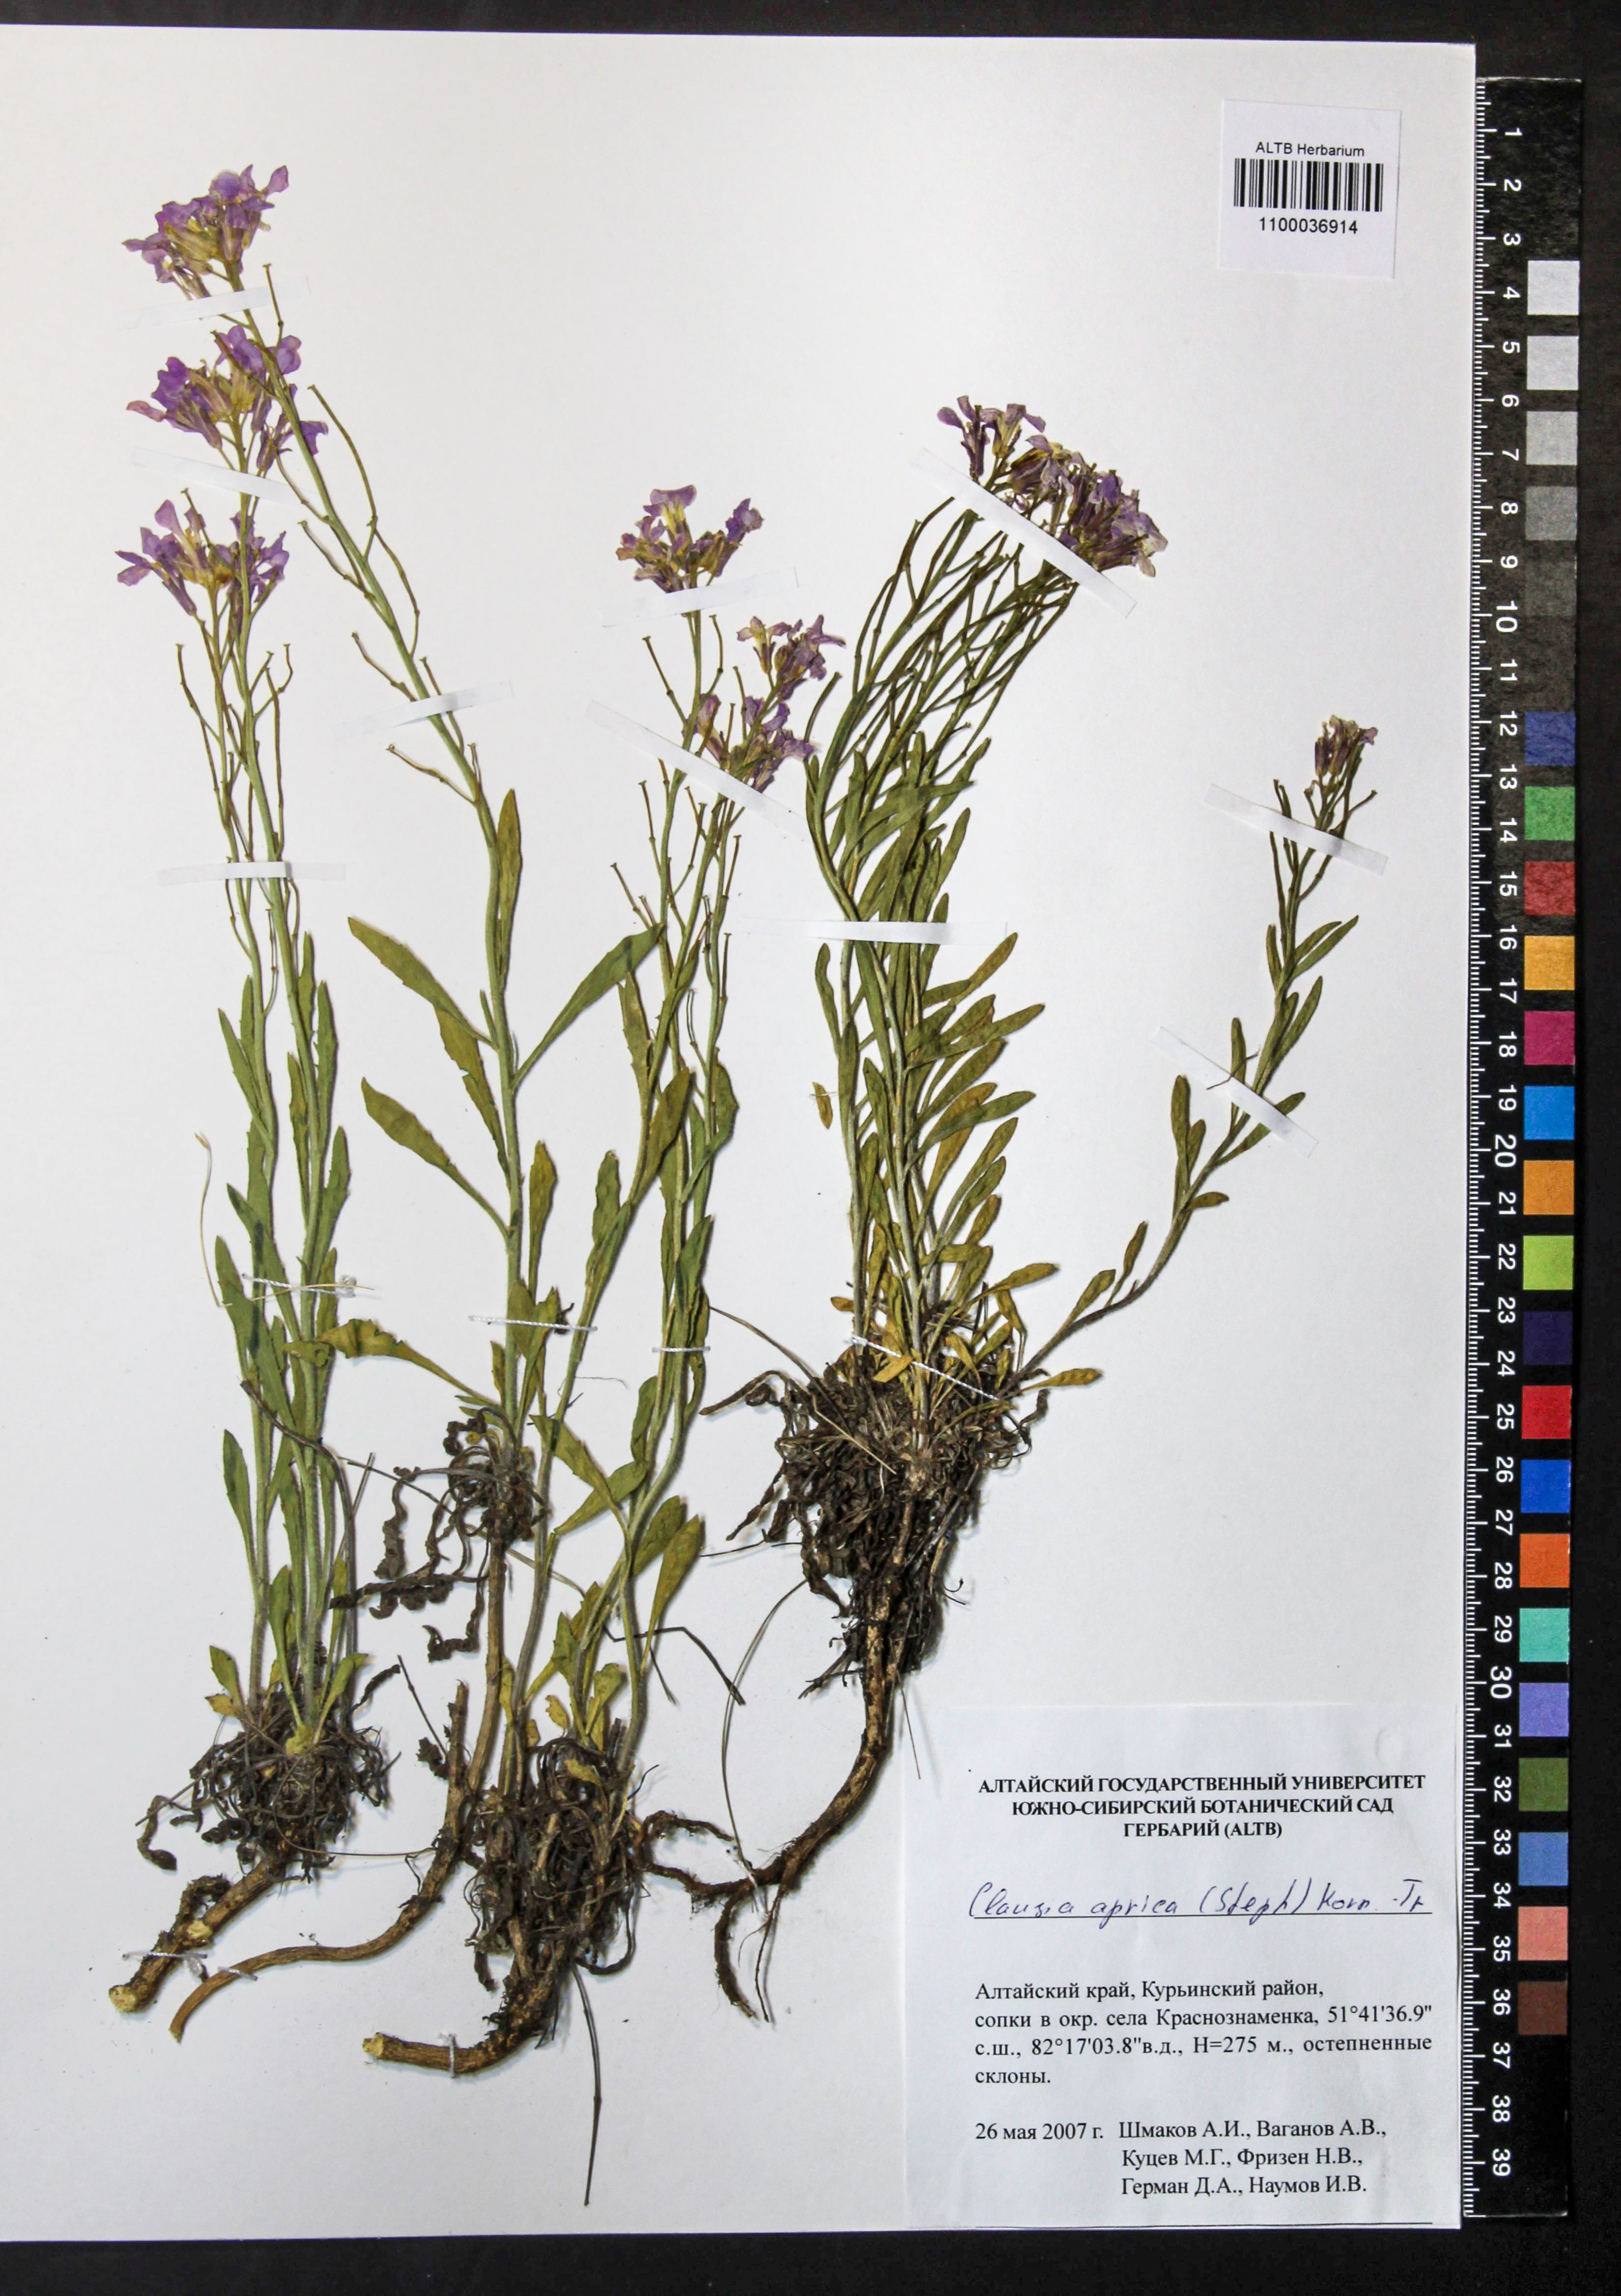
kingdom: Plantae
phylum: Tracheophyta
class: Magnoliopsida
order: Brassicales
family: Brassicaceae
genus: Clausia
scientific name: Clausia aprica
